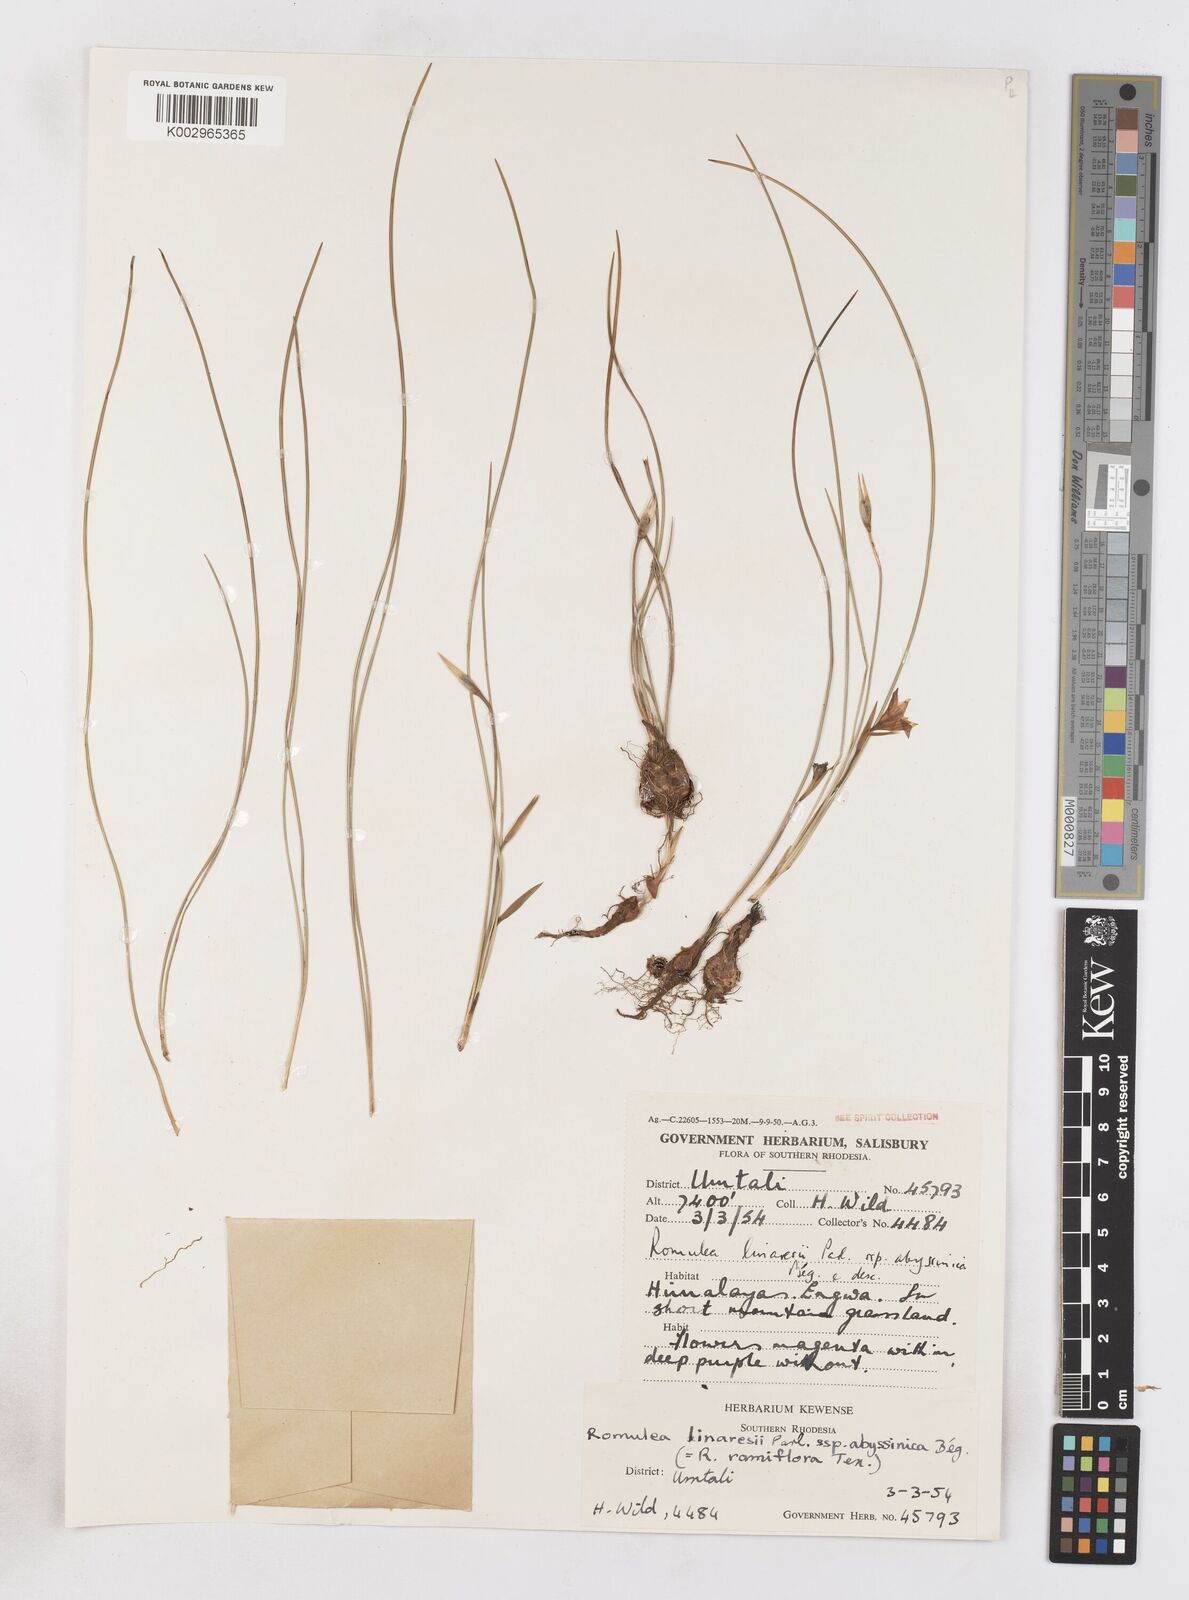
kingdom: Plantae
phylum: Tracheophyta
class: Liliopsida
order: Asparagales
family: Iridaceae
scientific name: Iridaceae
